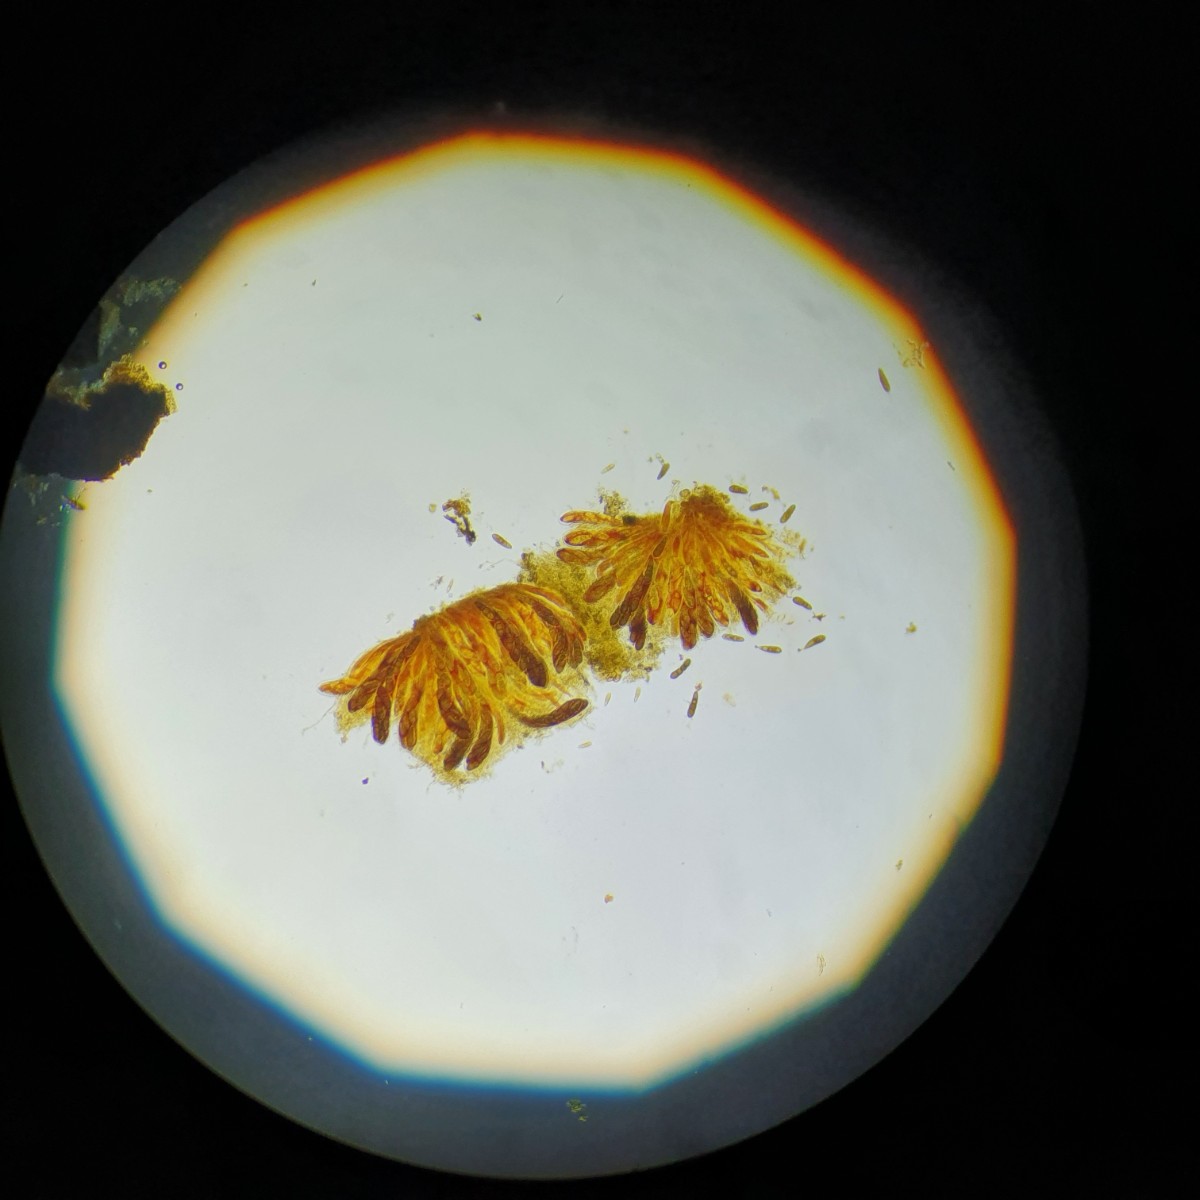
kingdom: Fungi
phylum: Ascomycota
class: Dothideomycetes
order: Pleosporales
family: Pleomassariaceae
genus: Splanchnonema
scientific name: Splanchnonema pupula
